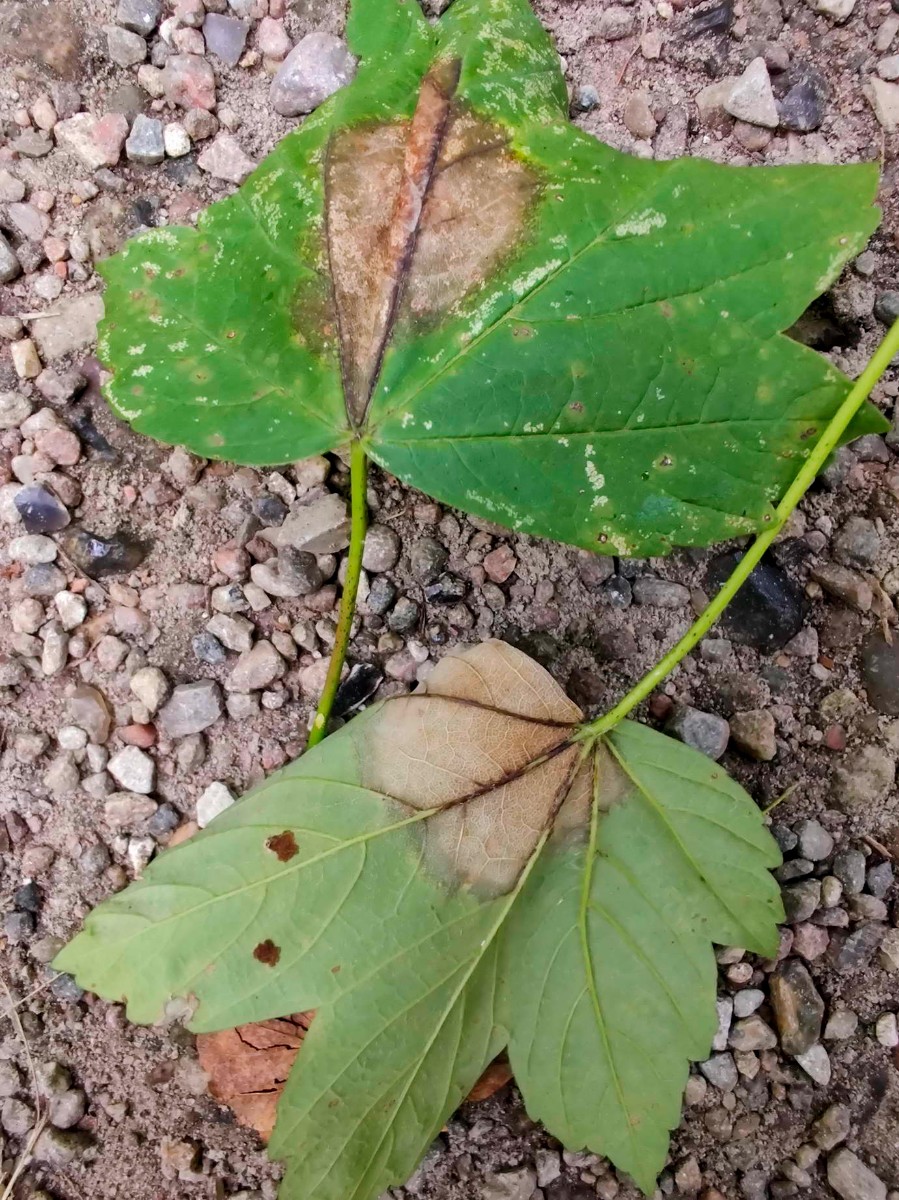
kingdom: Fungi
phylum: Ascomycota
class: Sordariomycetes
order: Diaporthales
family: Gnomoniaceae
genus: Pleuroceras
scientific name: Pleuroceras pseudoplatani
